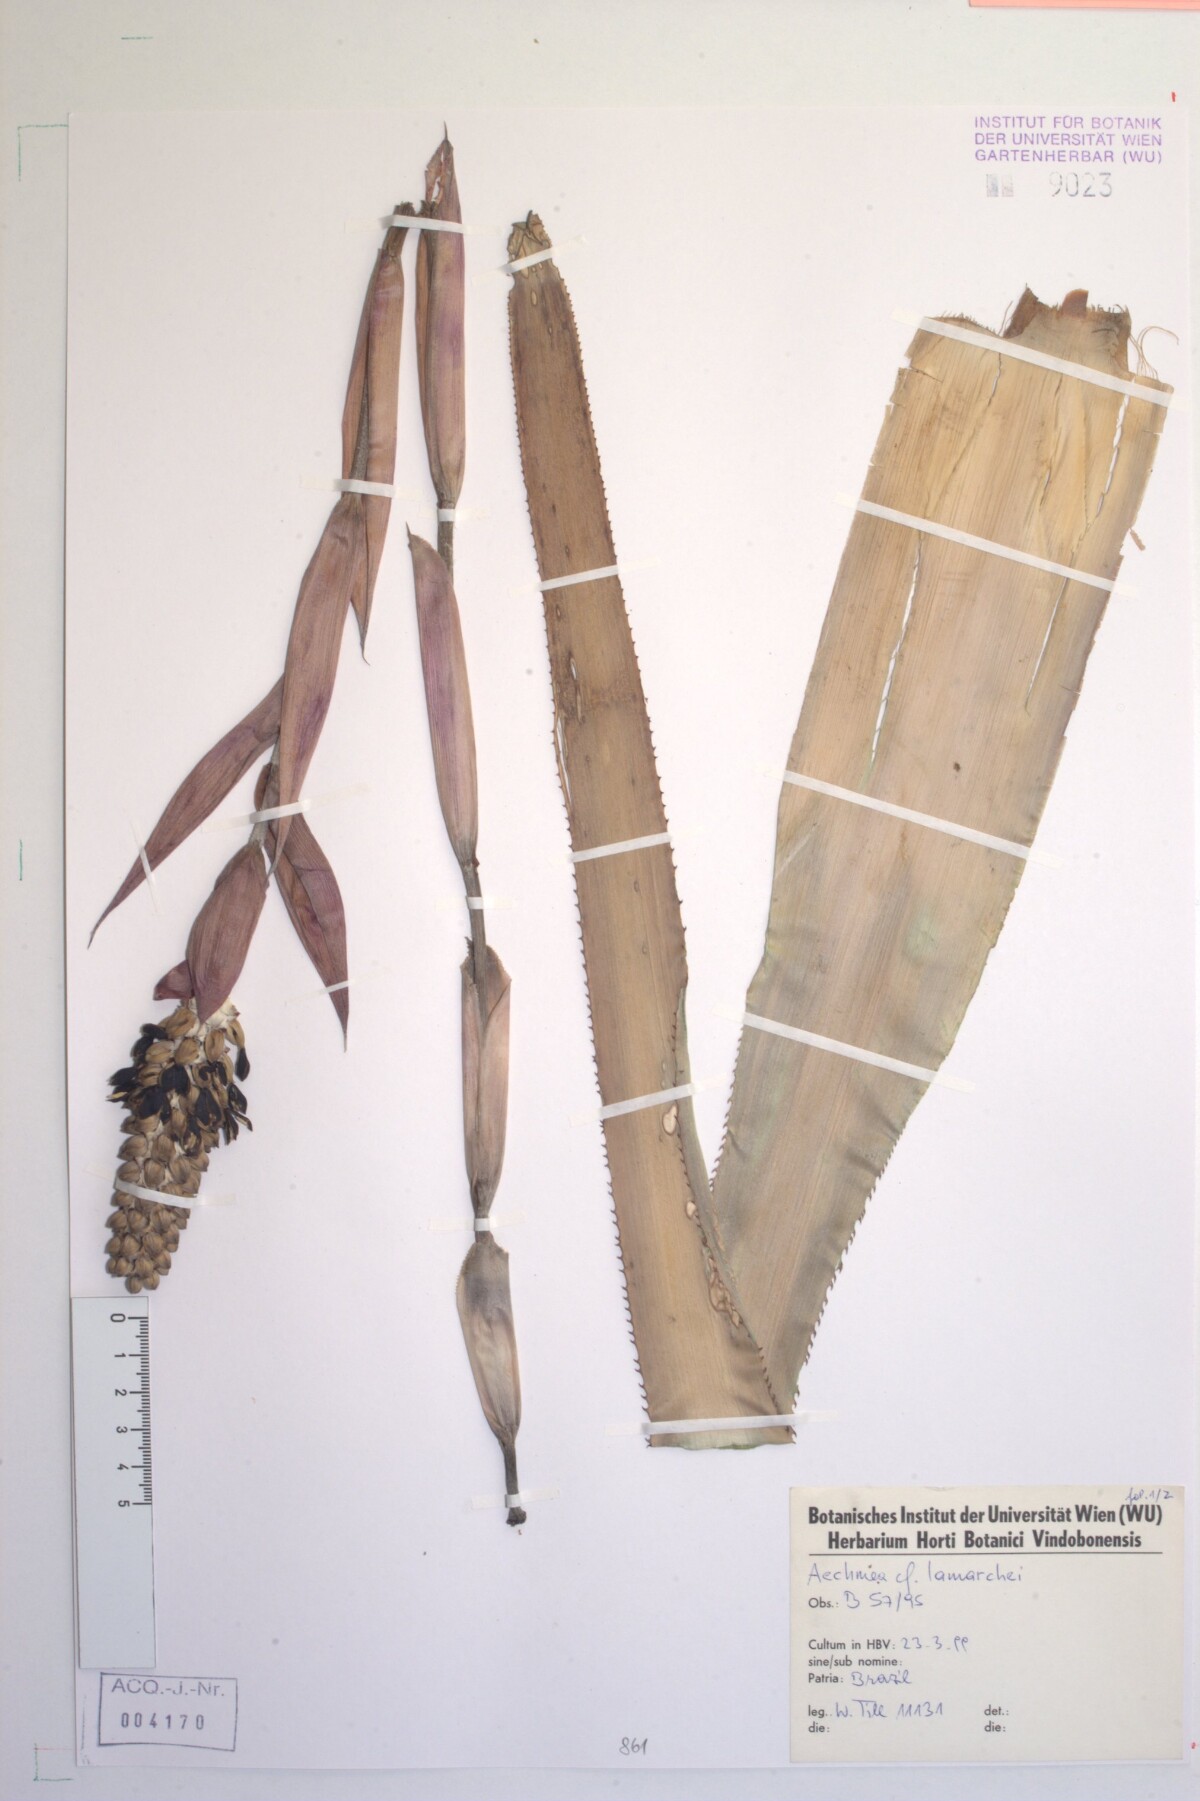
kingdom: Plantae
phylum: Tracheophyta
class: Liliopsida
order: Poales
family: Bromeliaceae
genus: Aechmea
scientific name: Aechmea lamarchei
